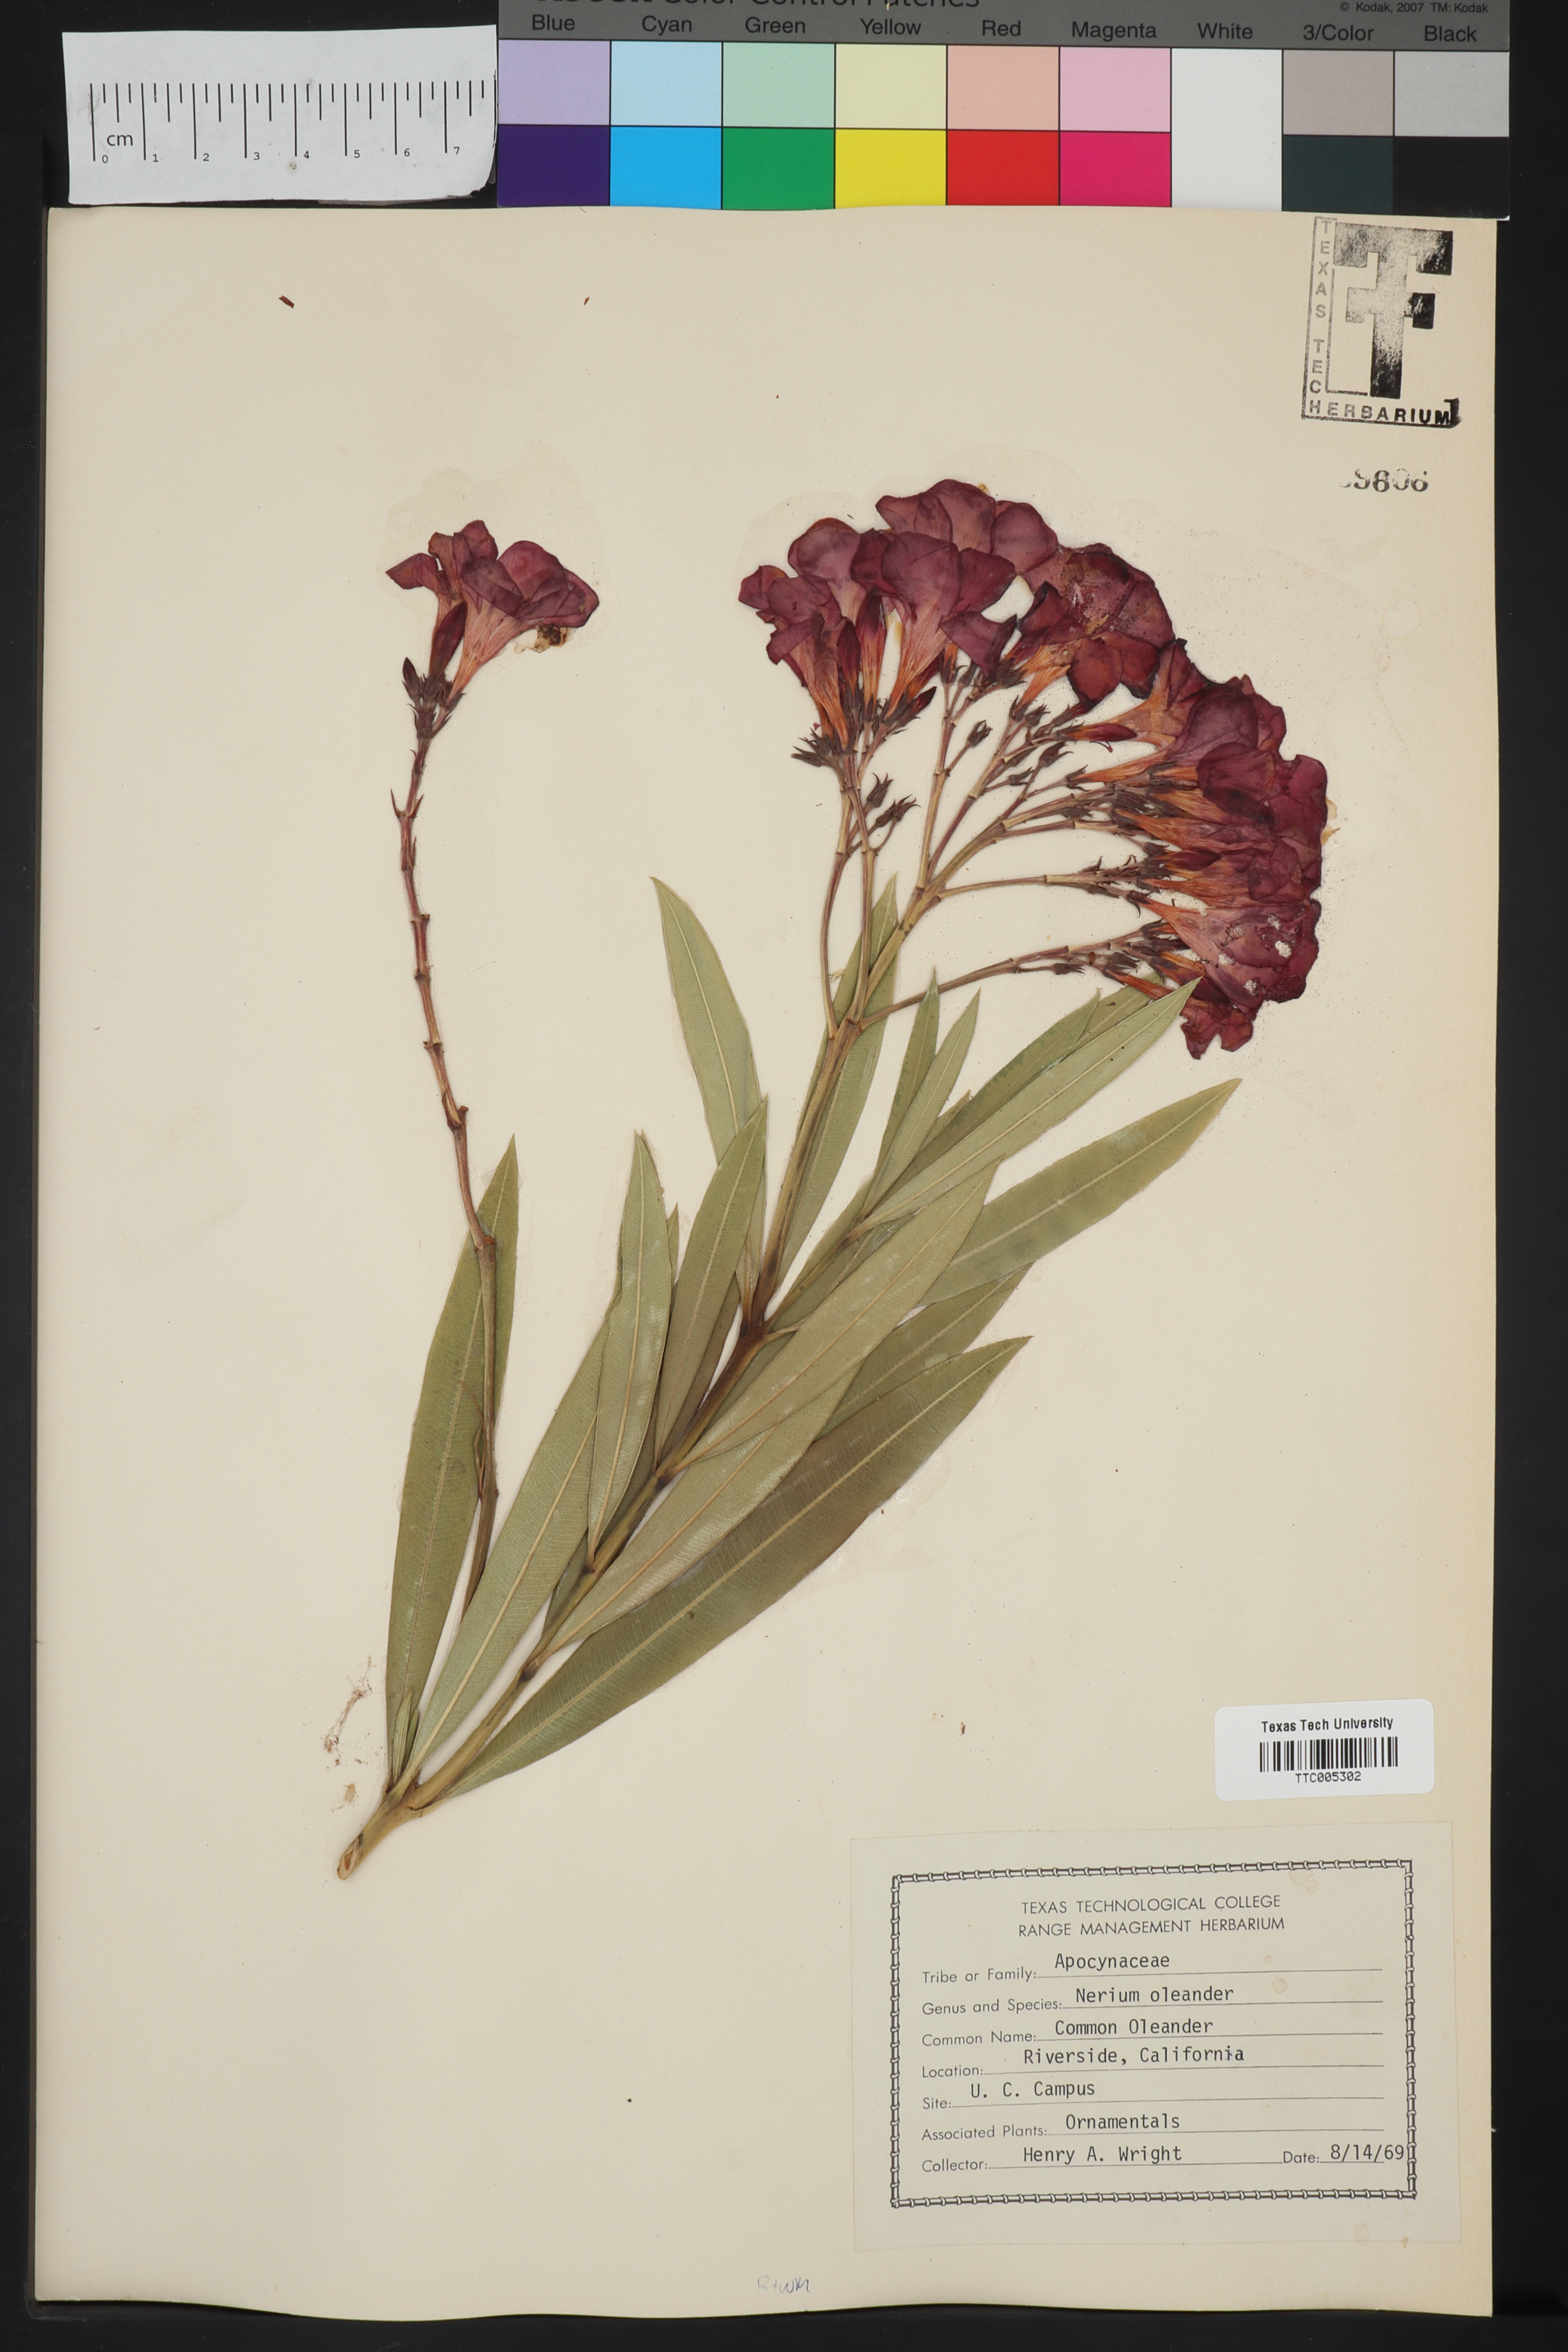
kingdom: Plantae
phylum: Tracheophyta
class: Magnoliopsida
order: Gentianales
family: Apocynaceae
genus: Nerium
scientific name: Nerium oleander
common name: Oleander
